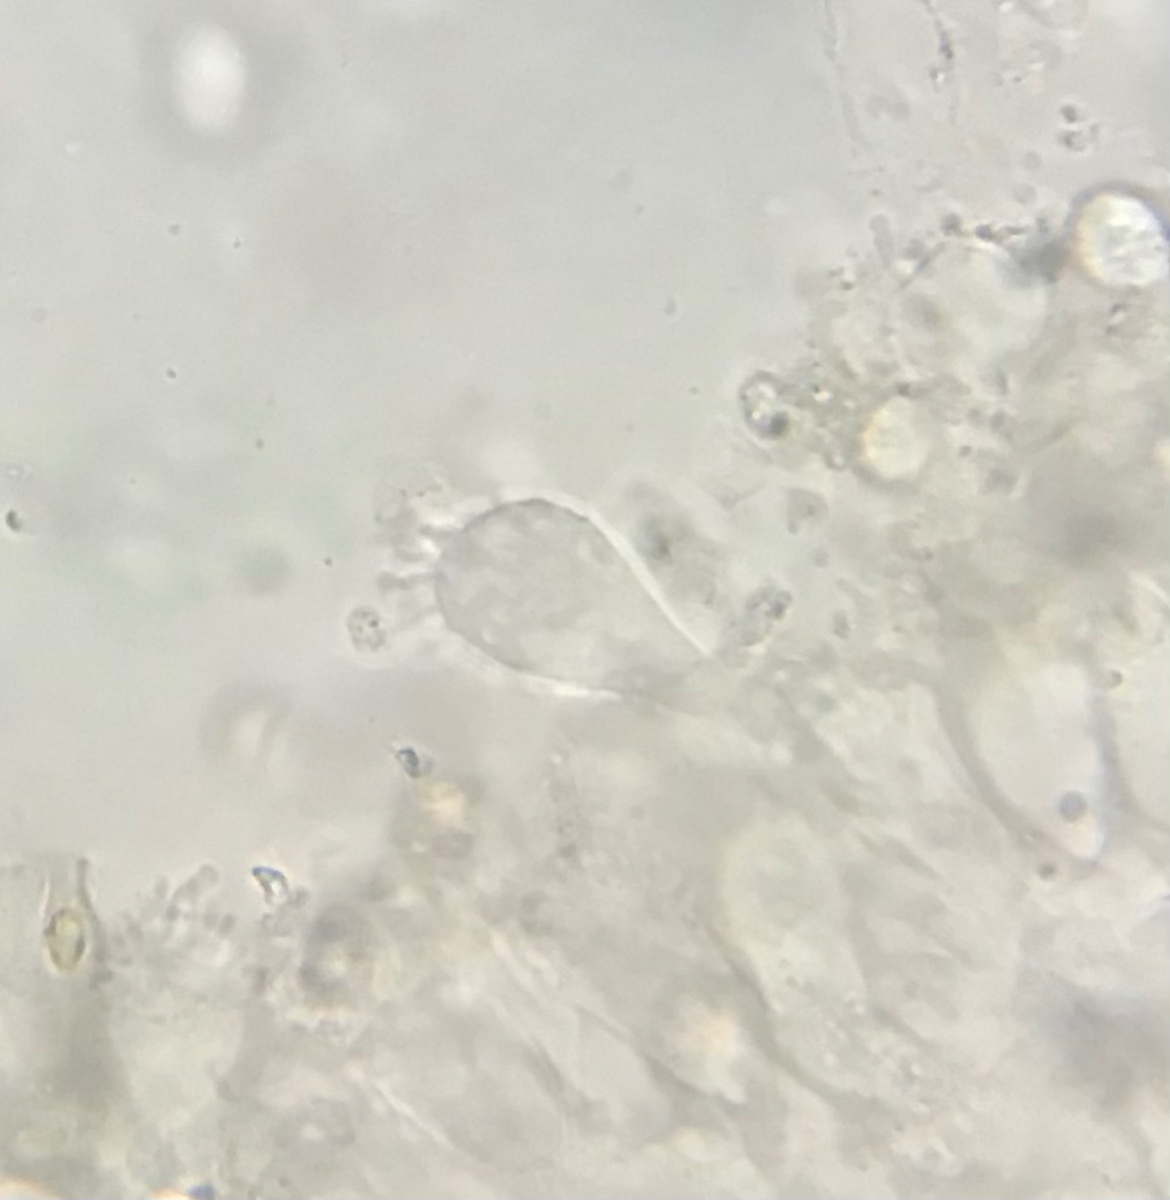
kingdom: Fungi
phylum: Basidiomycota
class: Agaricomycetes
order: Agaricales
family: Mycenaceae
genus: Mycena
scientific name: Mycena arcangeliana
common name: oliven-huesvamp
